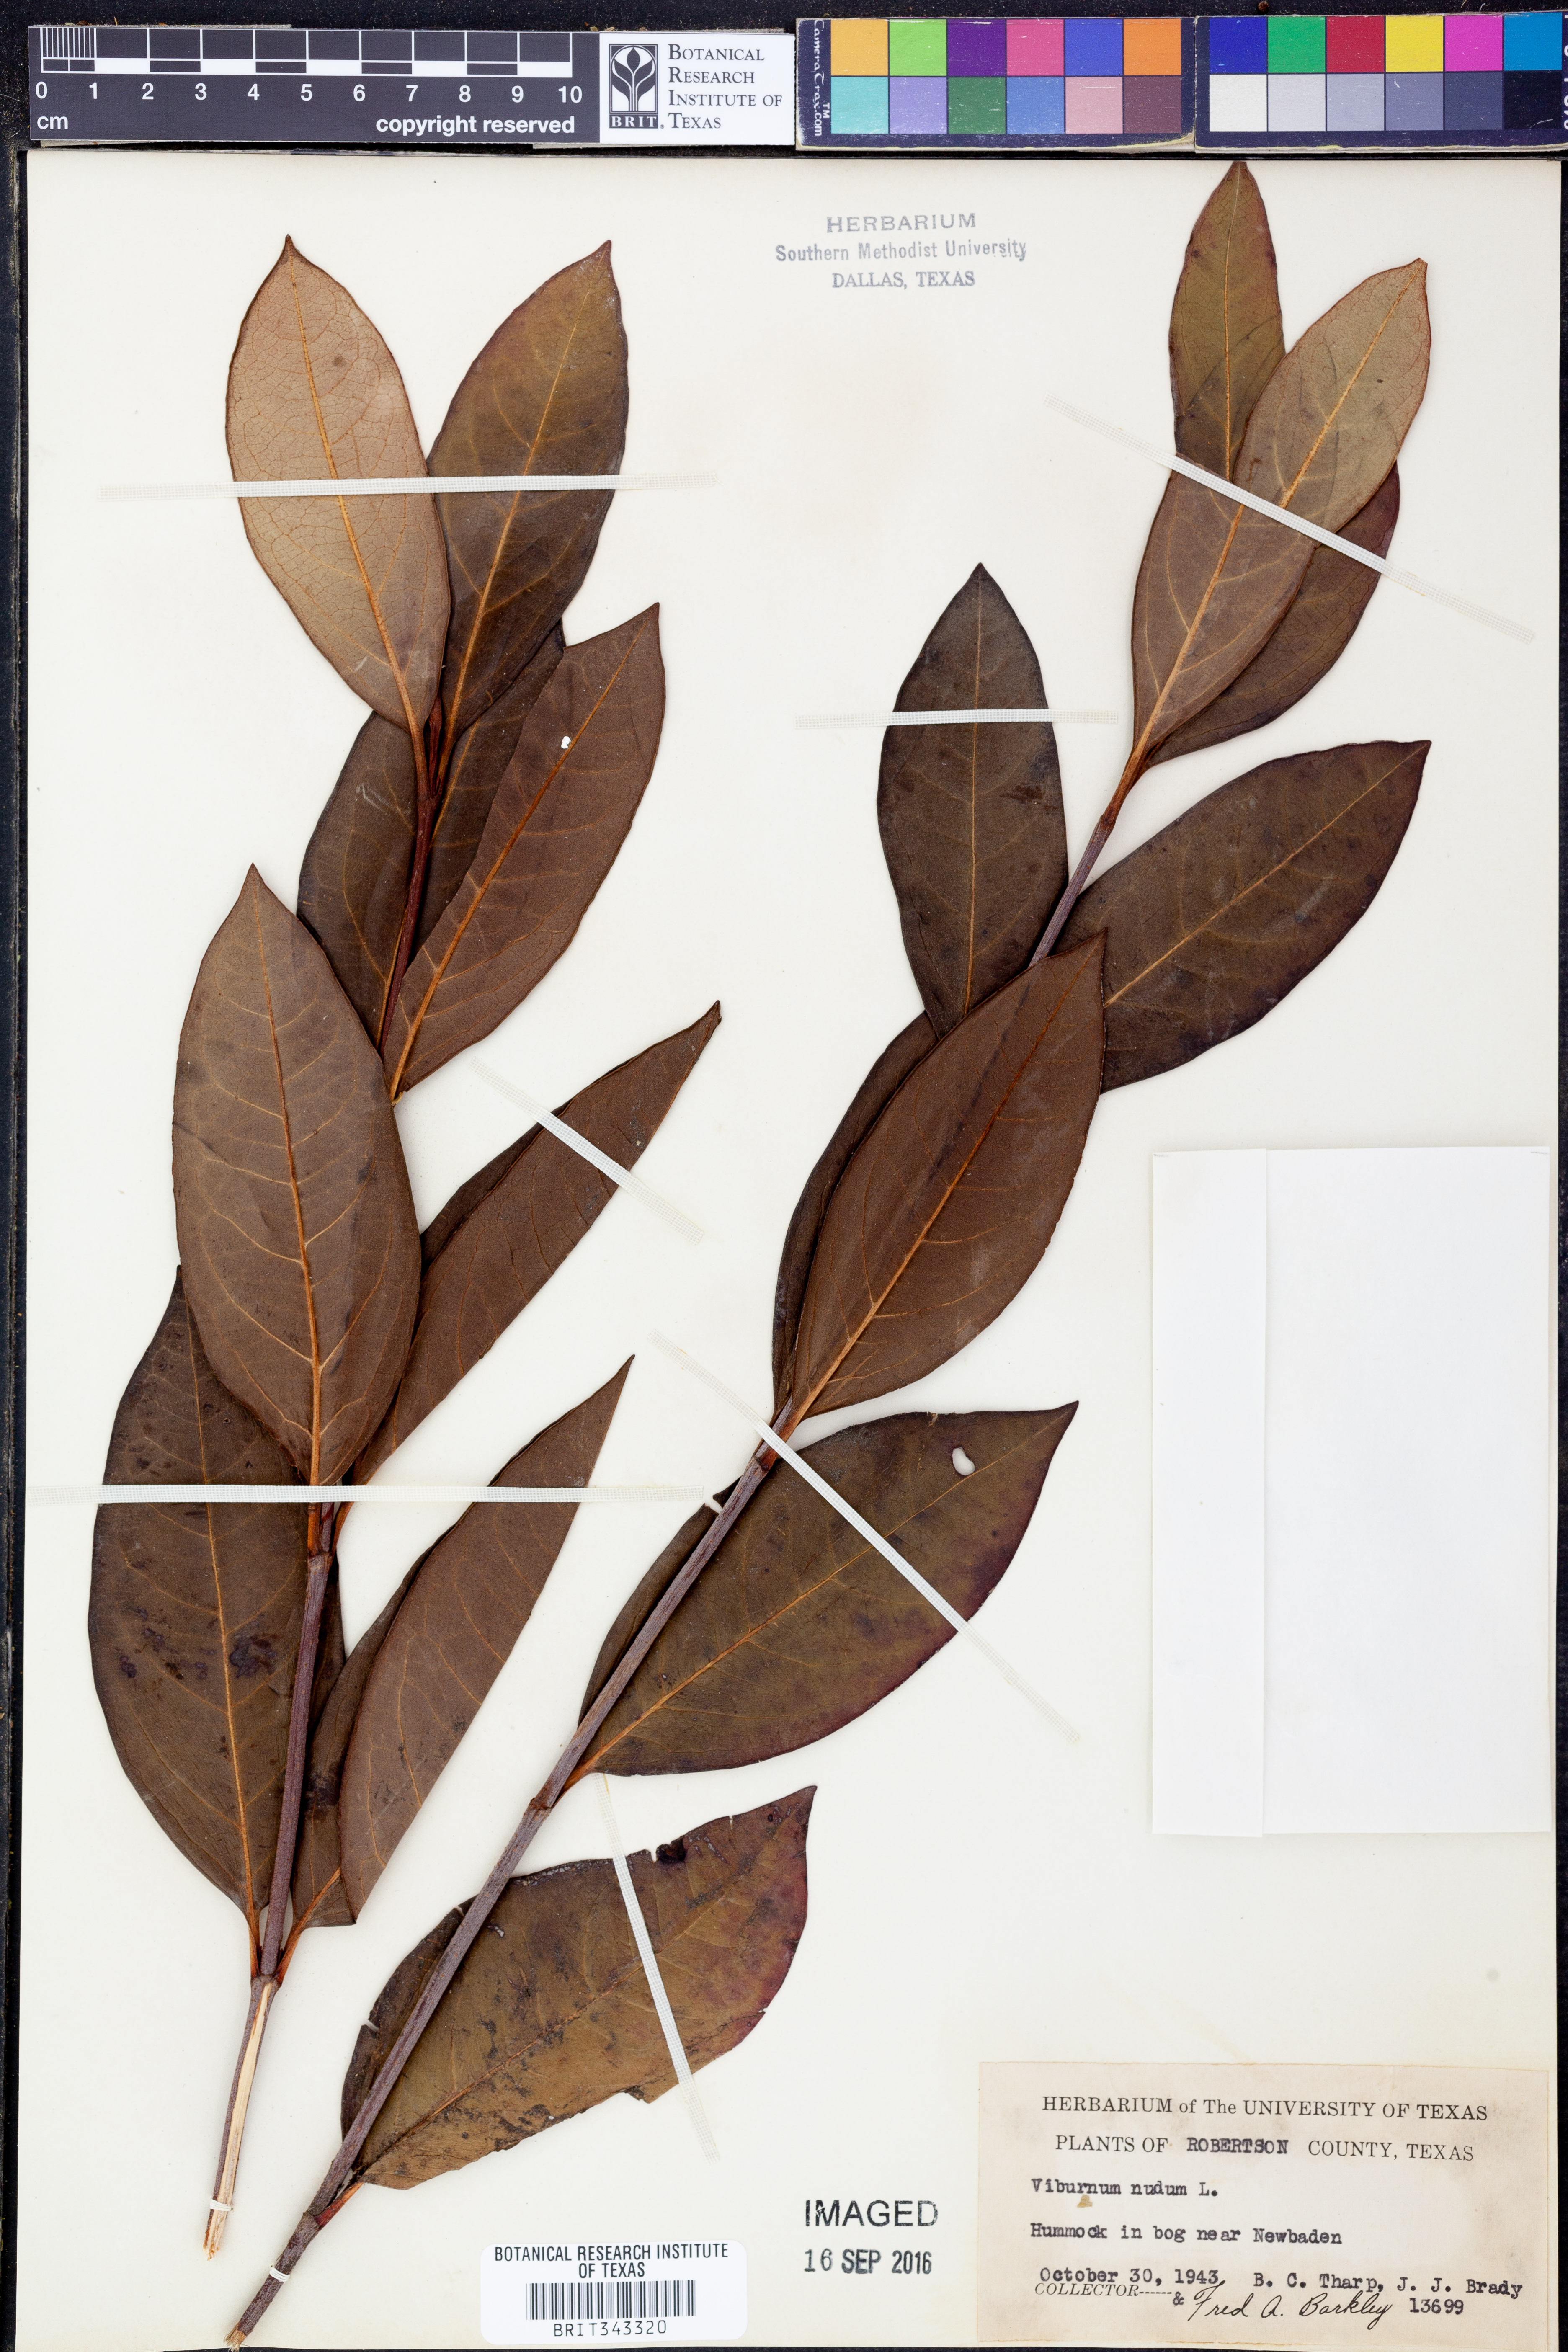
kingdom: Plantae
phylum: Tracheophyta
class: Magnoliopsida
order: Dipsacales
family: Viburnaceae
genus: Viburnum
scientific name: Viburnum nudum
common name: Possum haw
